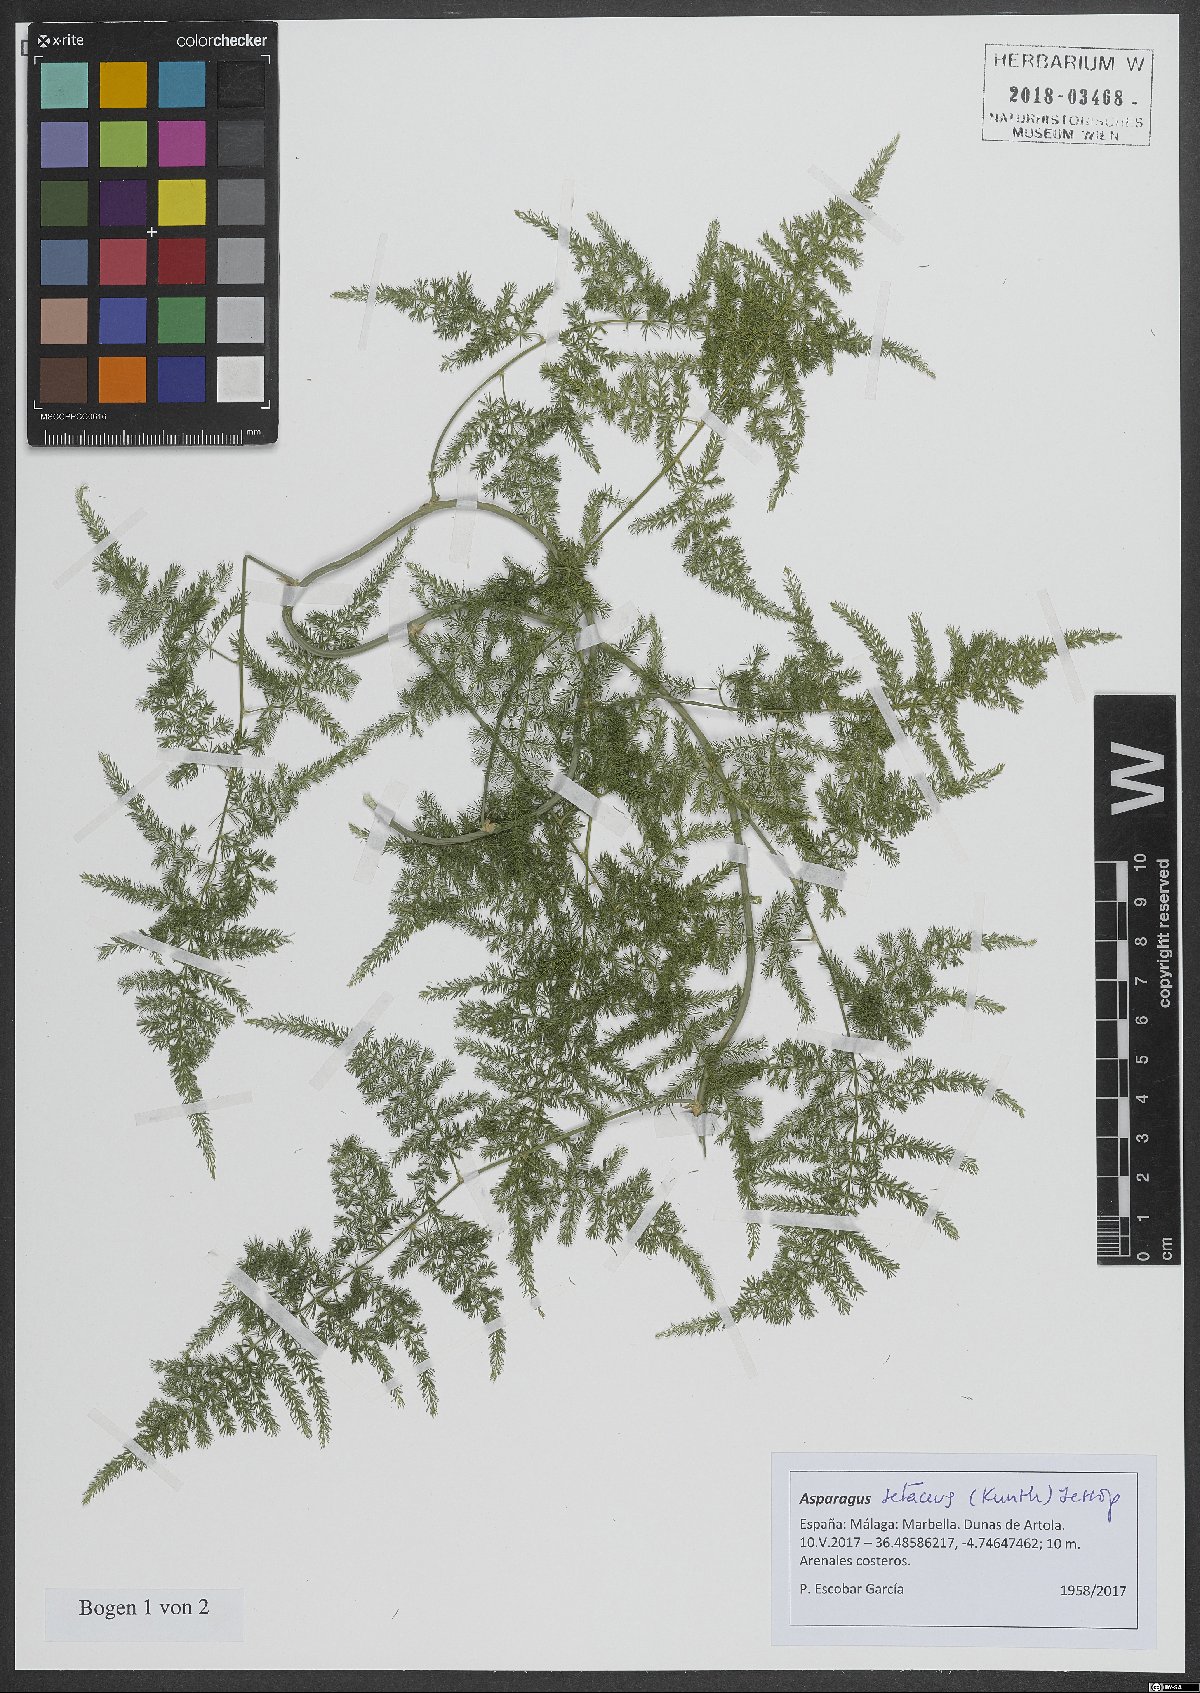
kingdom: Plantae
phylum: Tracheophyta
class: Liliopsida
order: Asparagales
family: Asparagaceae
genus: Asparagus
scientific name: Asparagus setaceus
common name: Common asparagus fern
